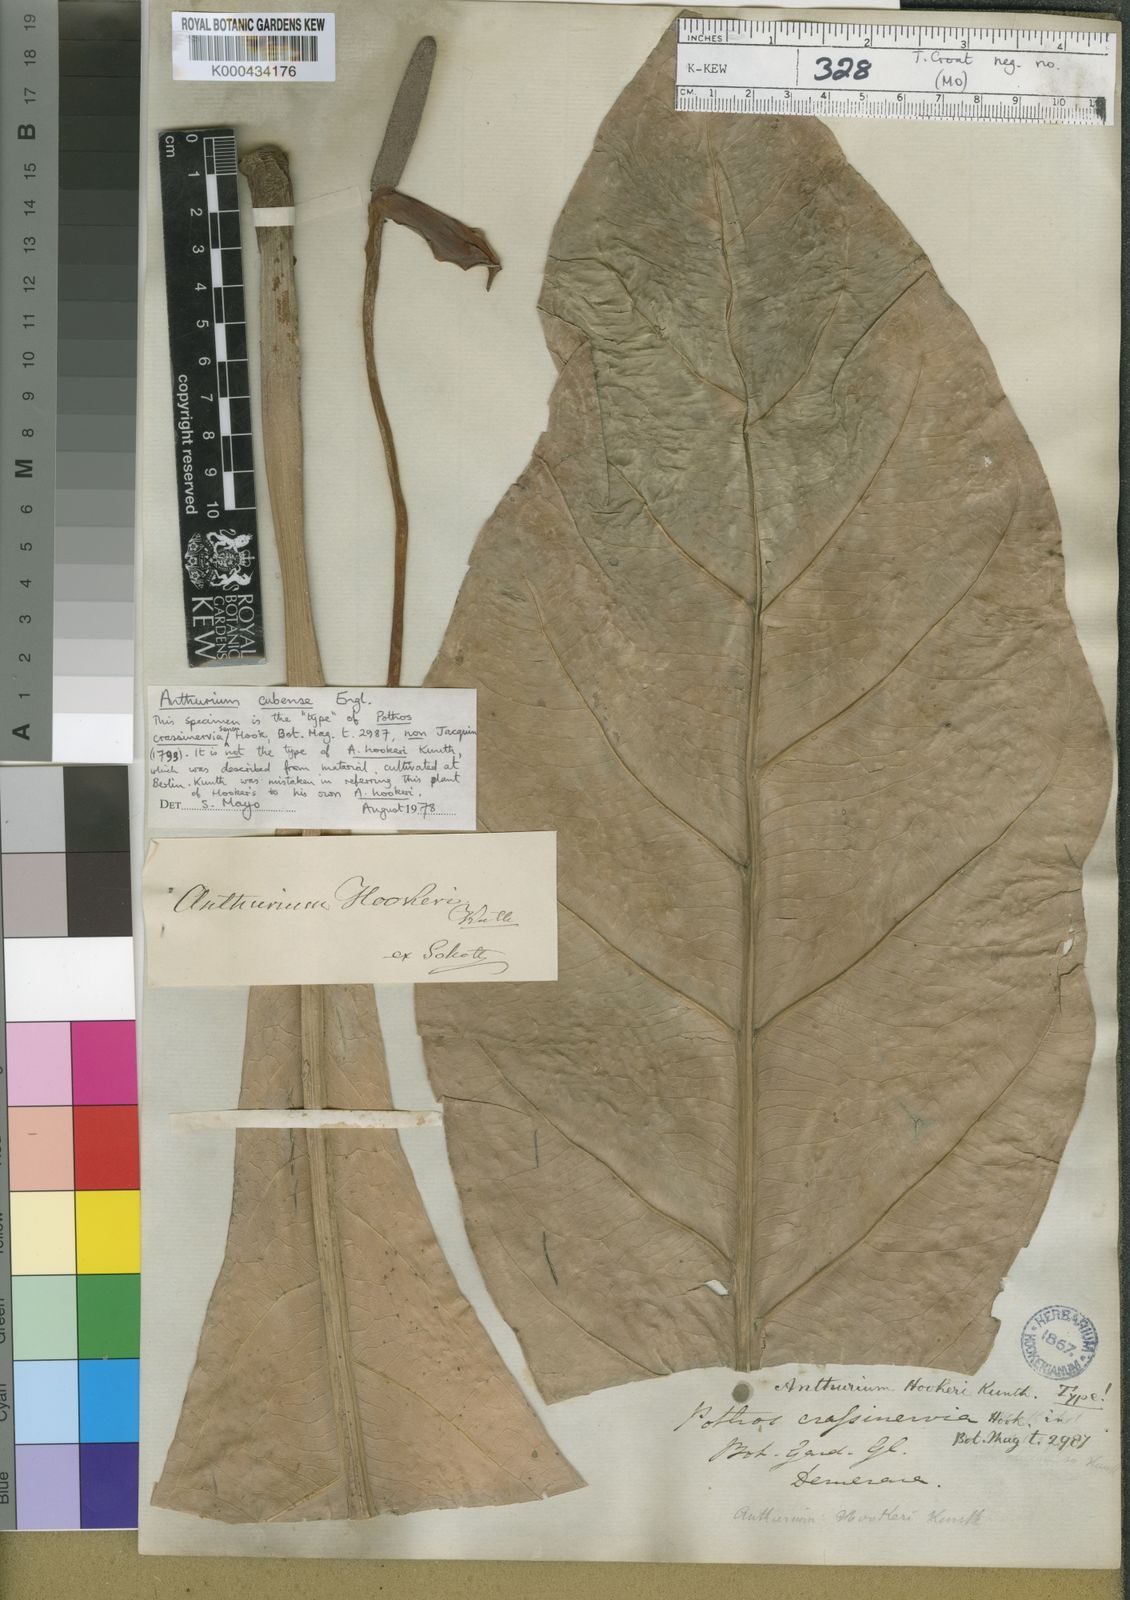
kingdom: Plantae
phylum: Tracheophyta
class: Liliopsida
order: Alismatales
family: Araceae
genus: Anthurium
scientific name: Anthurium
